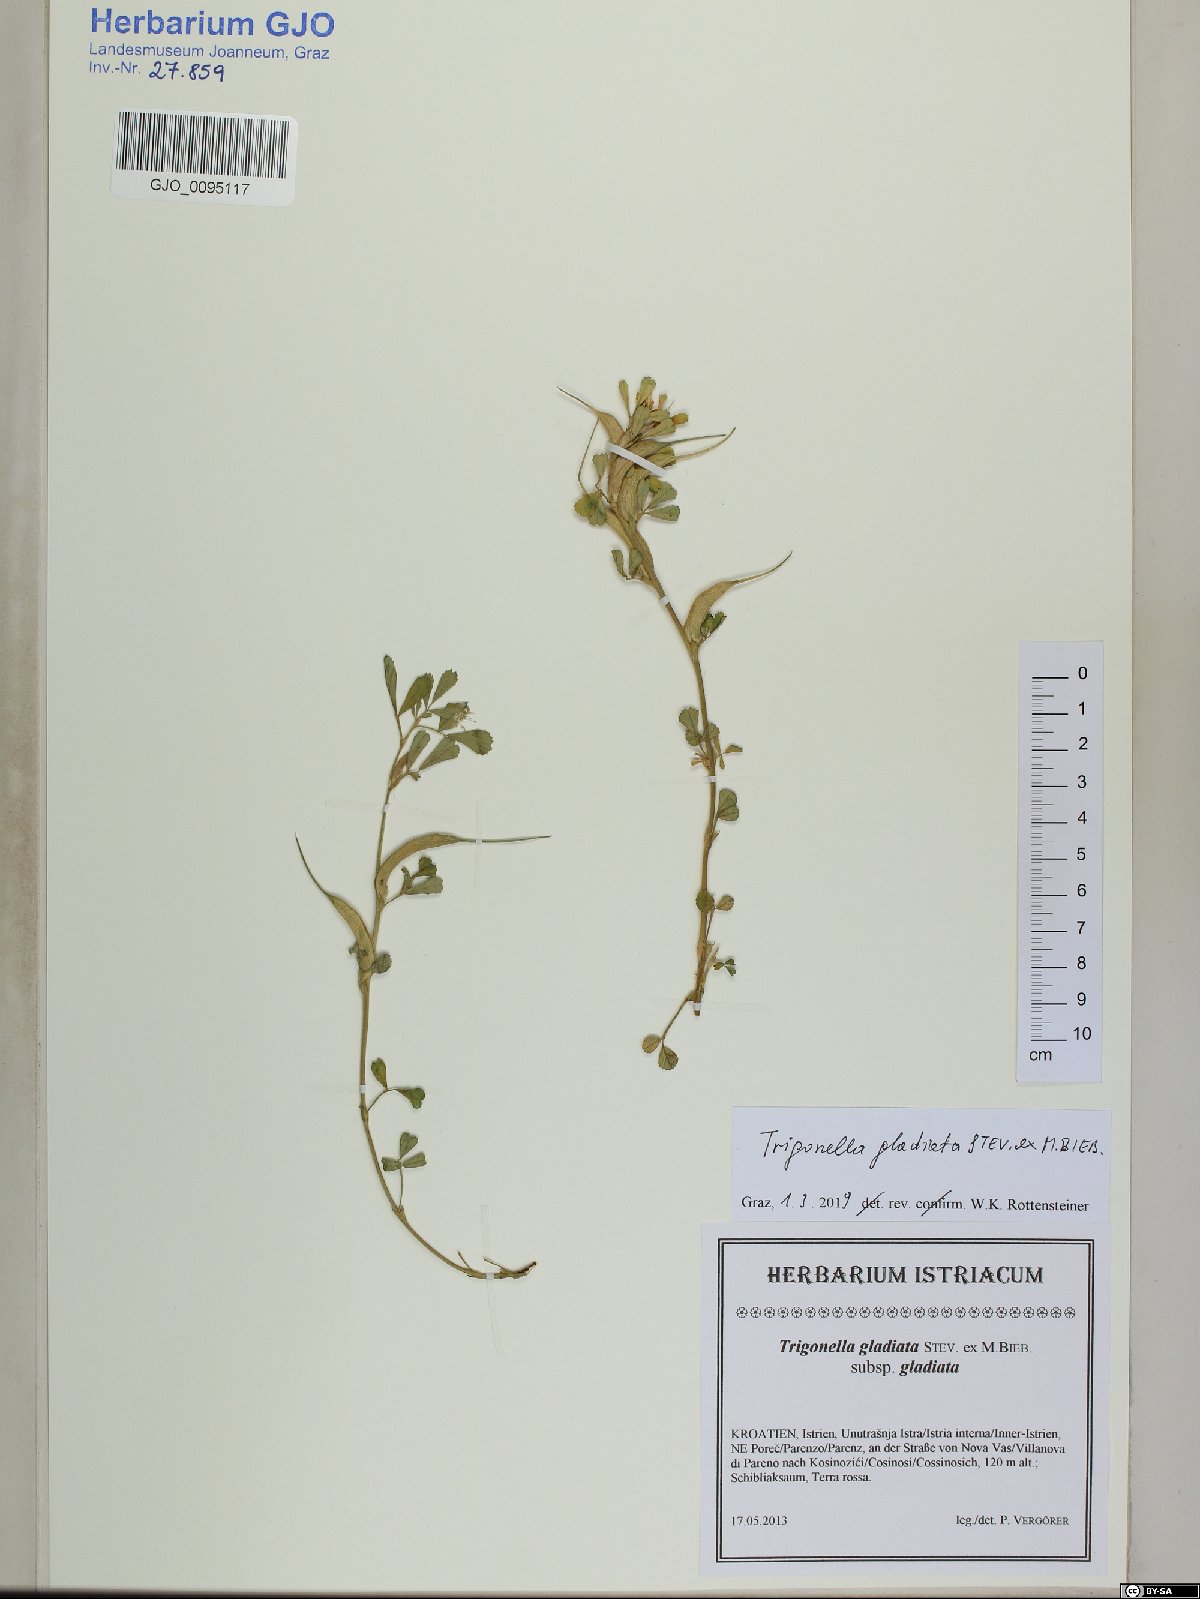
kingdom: Plantae
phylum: Tracheophyta
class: Magnoliopsida
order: Fabales
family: Fabaceae
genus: Trigonella
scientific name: Trigonella gladiata
